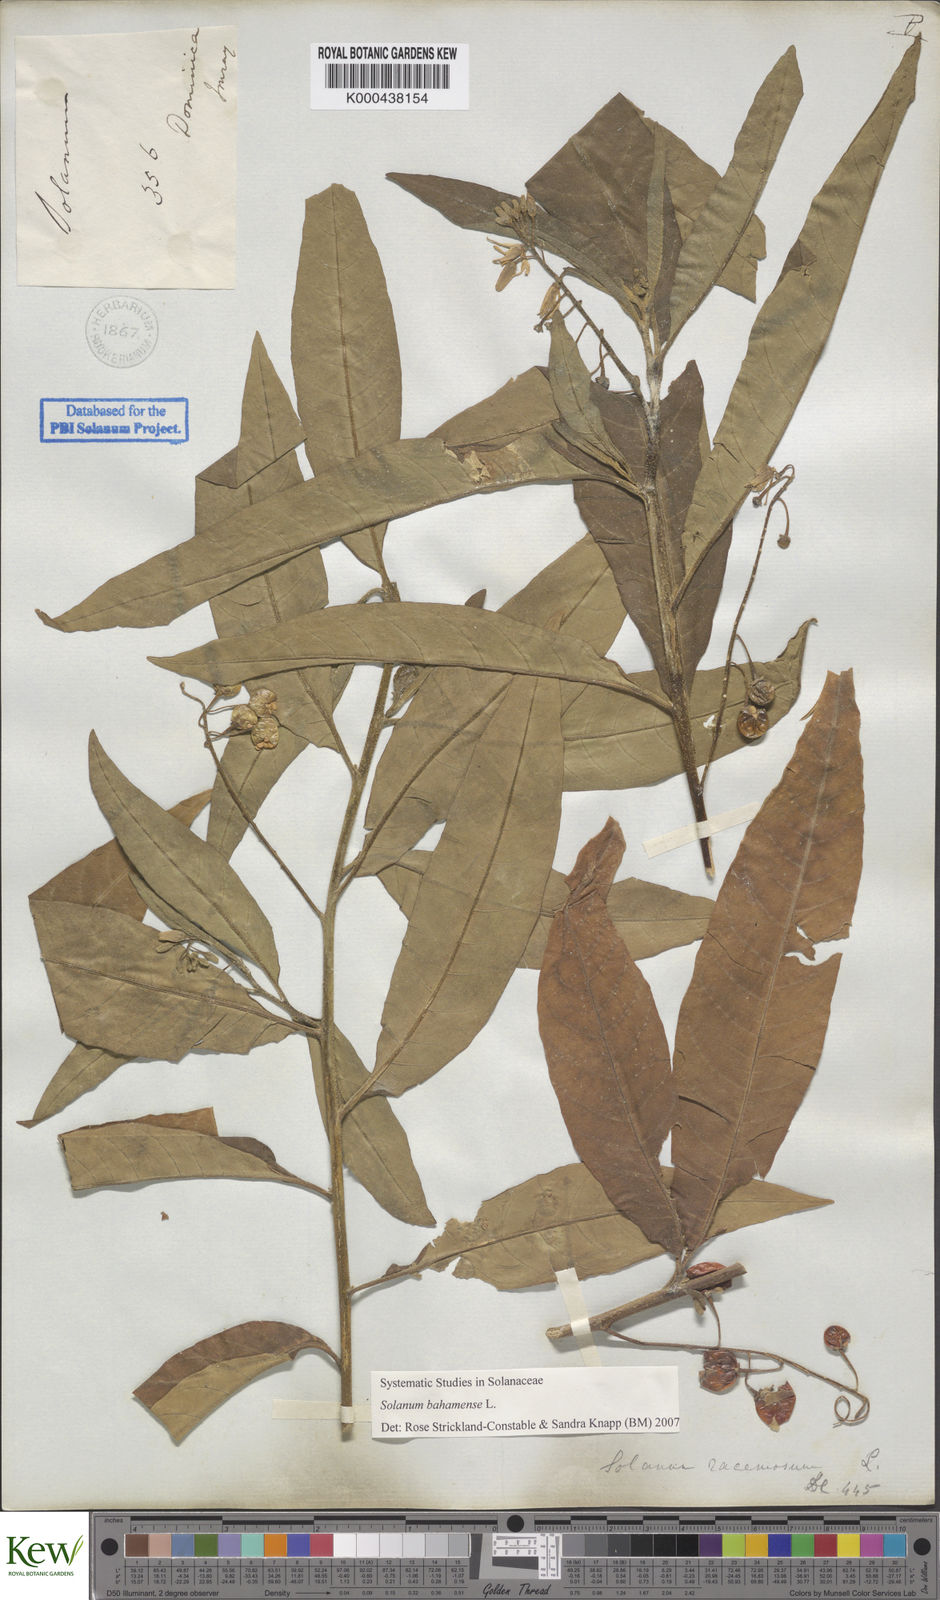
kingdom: Plantae
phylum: Tracheophyta
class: Magnoliopsida
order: Solanales
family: Solanaceae
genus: Solanum
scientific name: Solanum bahamense
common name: Canker-berry
